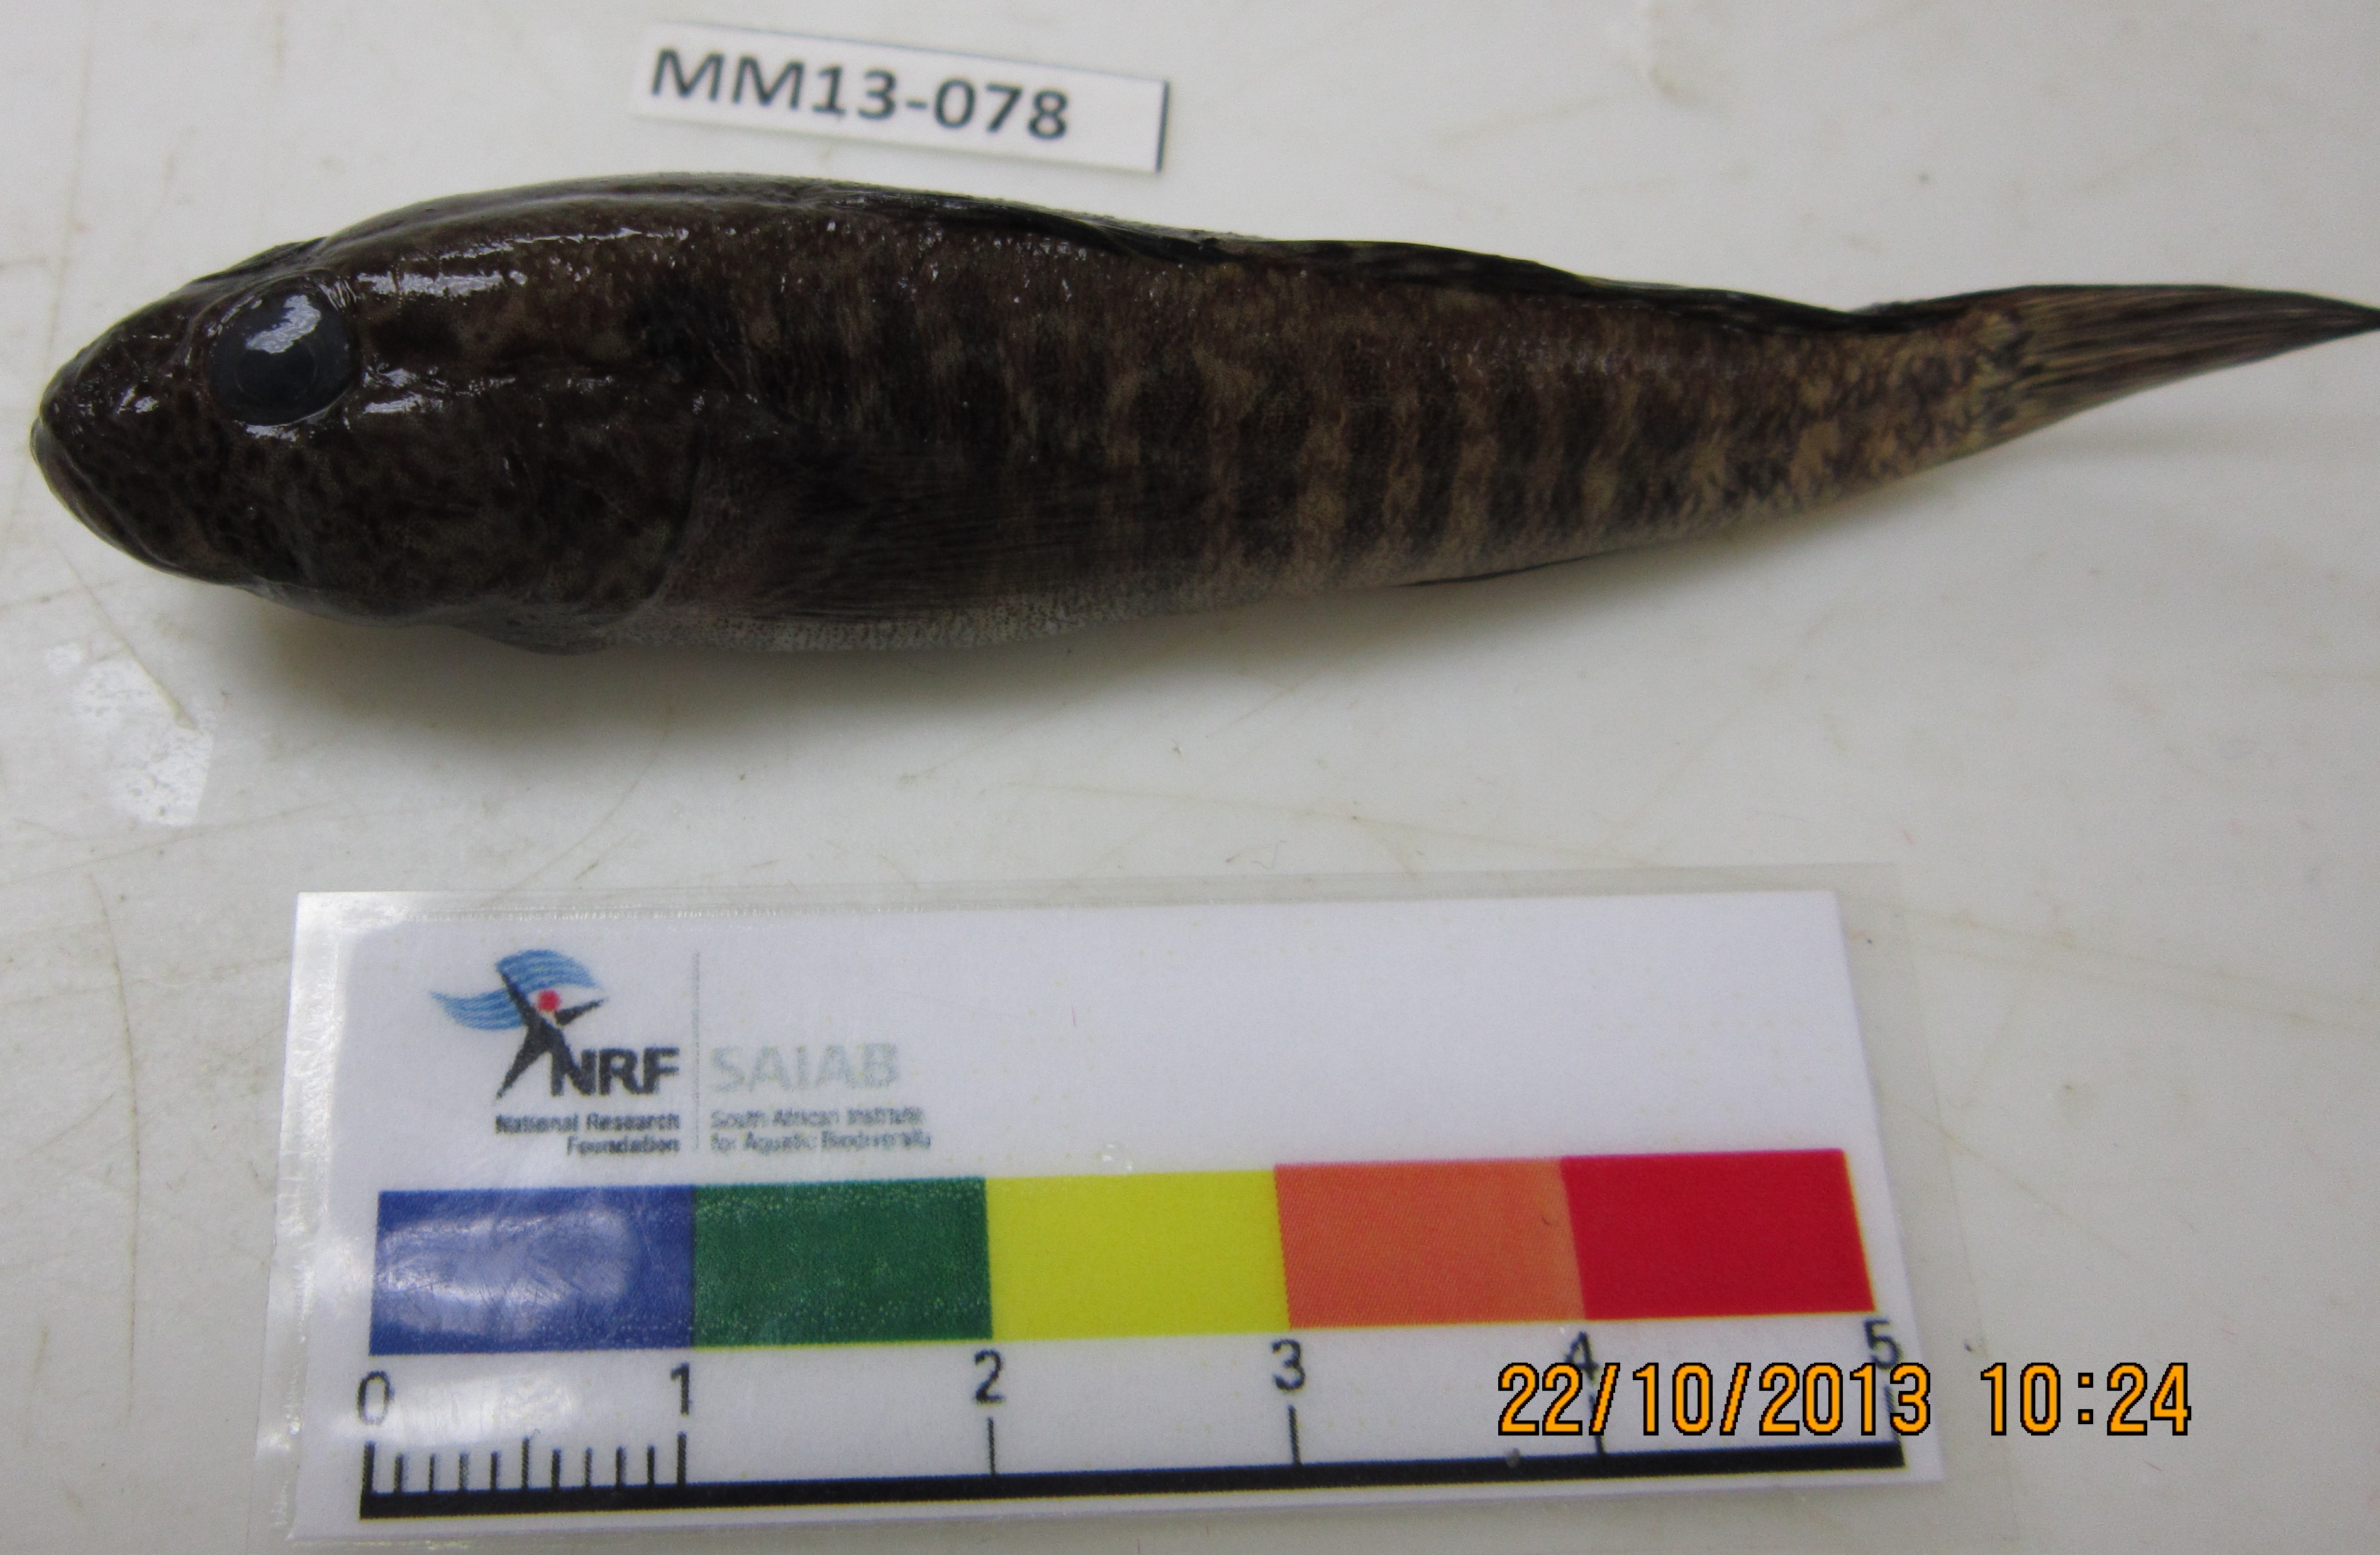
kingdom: Animalia
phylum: Chordata
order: Perciformes
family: Gobiidae
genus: Caffrogobius
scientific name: Caffrogobius caffer
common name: Banded goby
